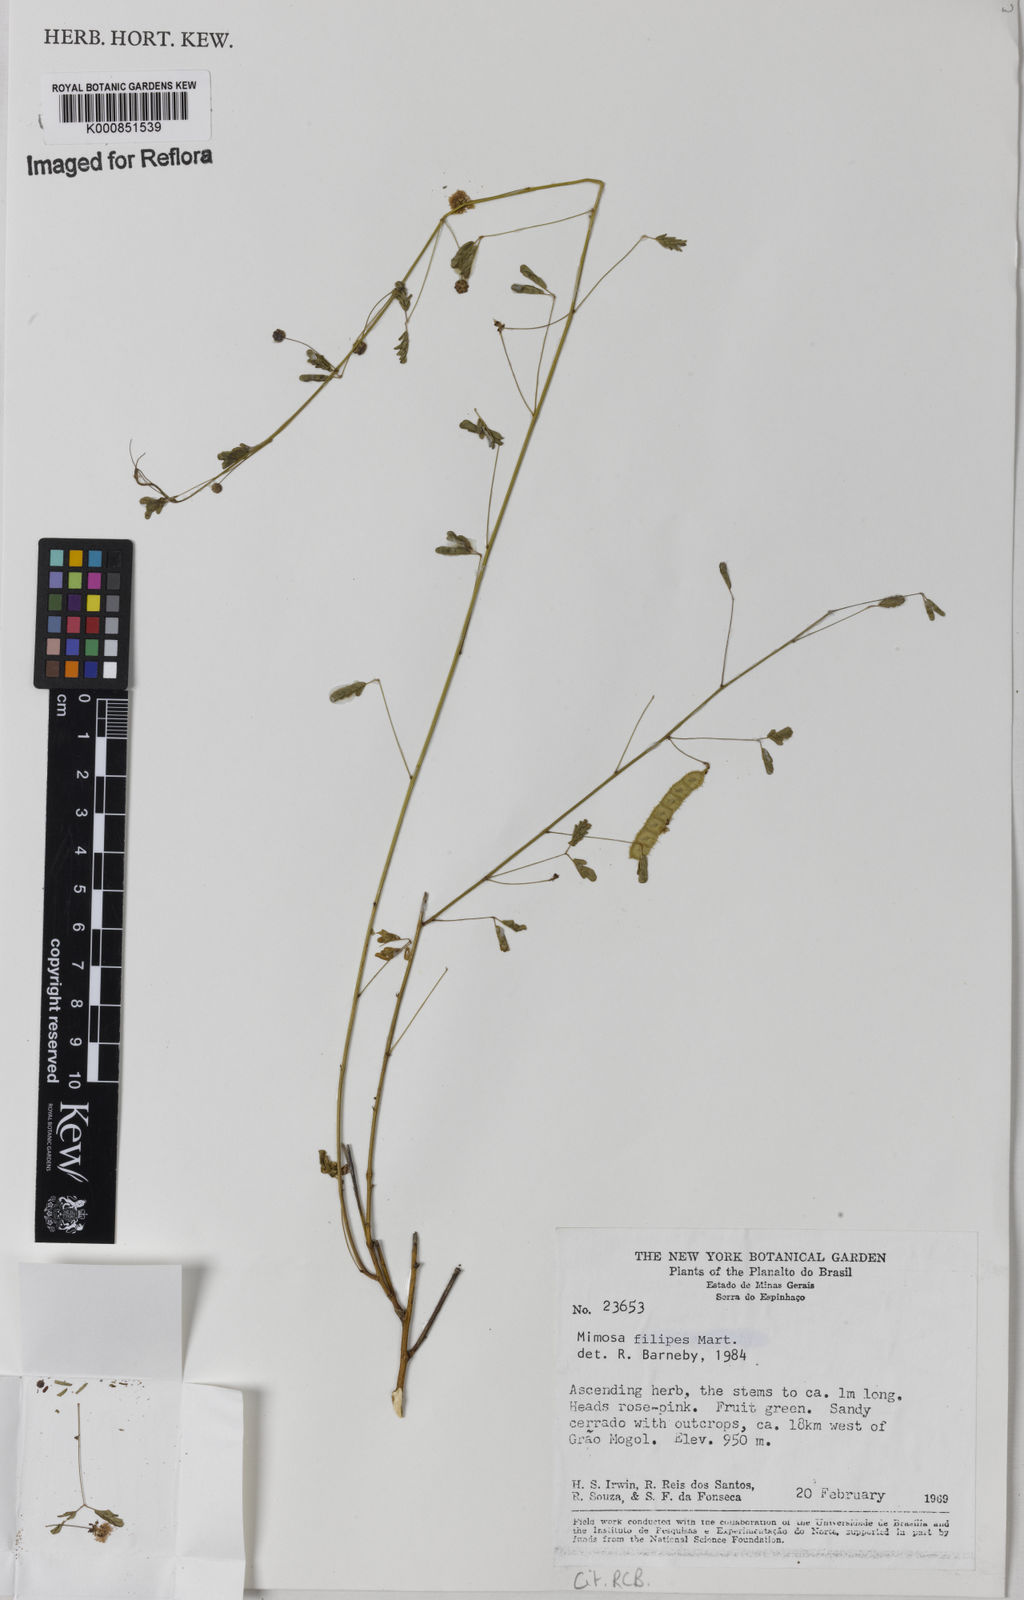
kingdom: Plantae
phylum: Tracheophyta
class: Magnoliopsida
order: Fabales
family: Fabaceae
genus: Mimosa
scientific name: Mimosa texana
